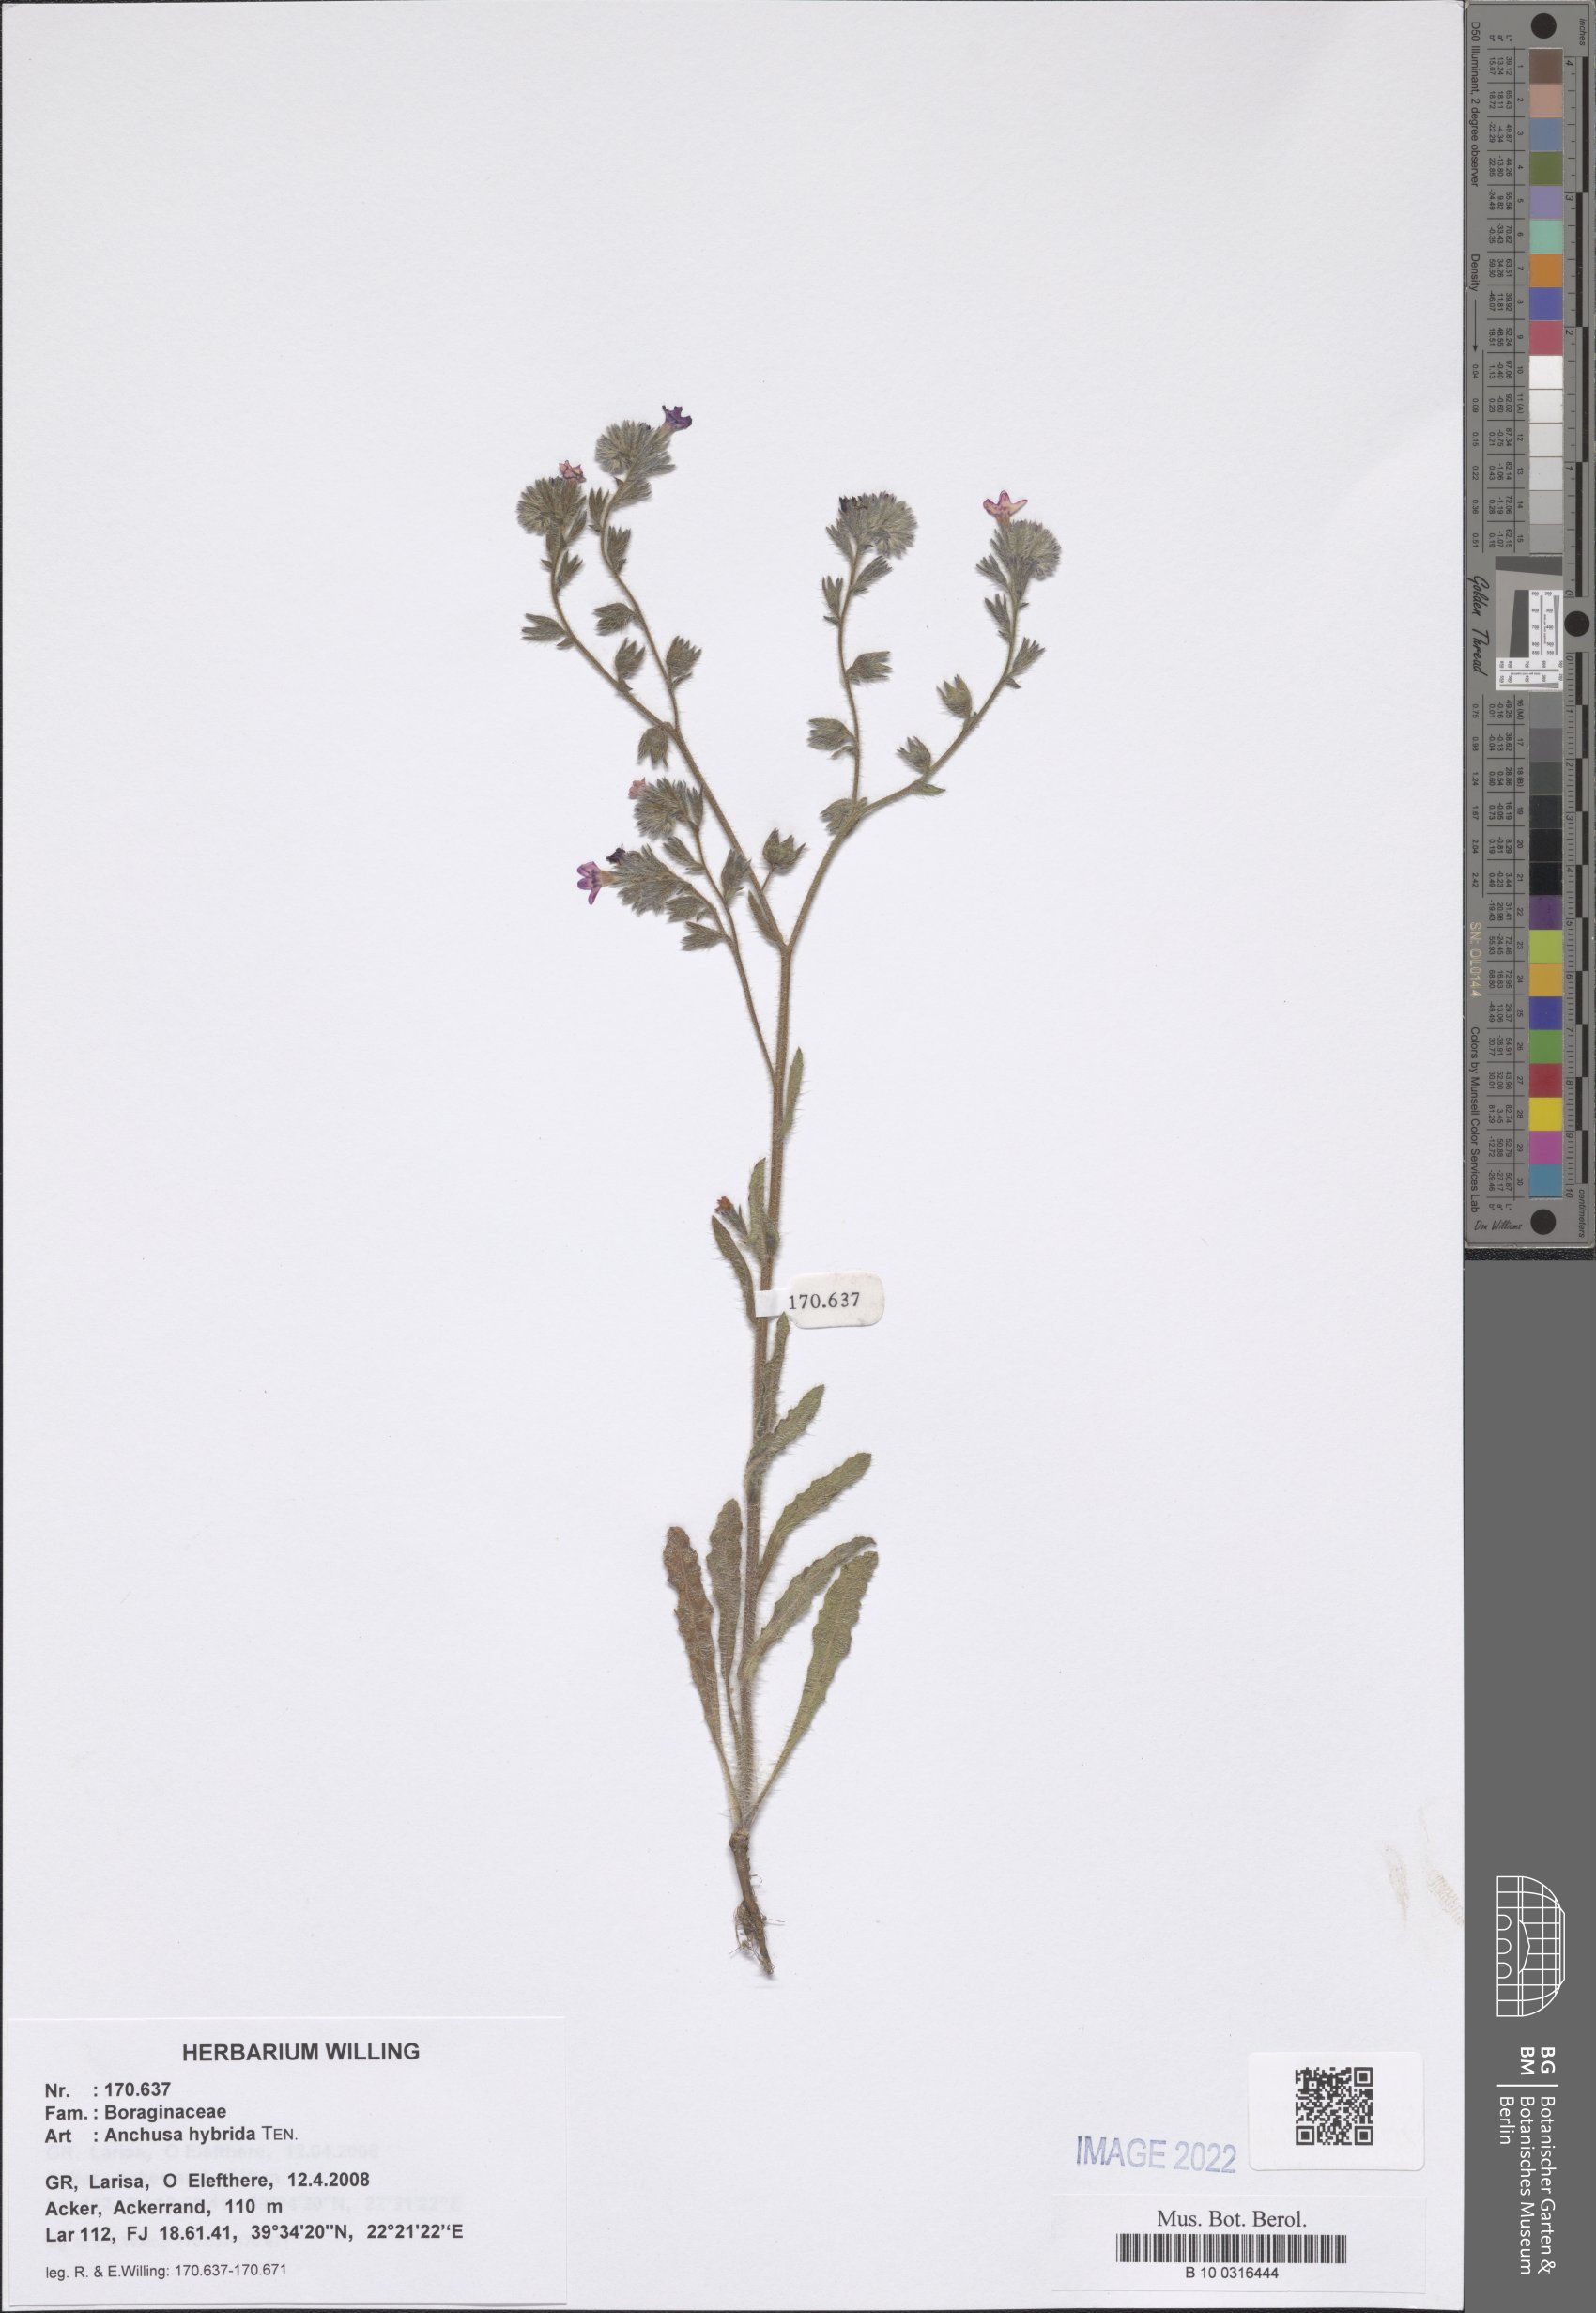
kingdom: Plantae
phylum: Tracheophyta
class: Magnoliopsida
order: Boraginales
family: Boraginaceae
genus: Anchusa
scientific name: Anchusa hybrida
